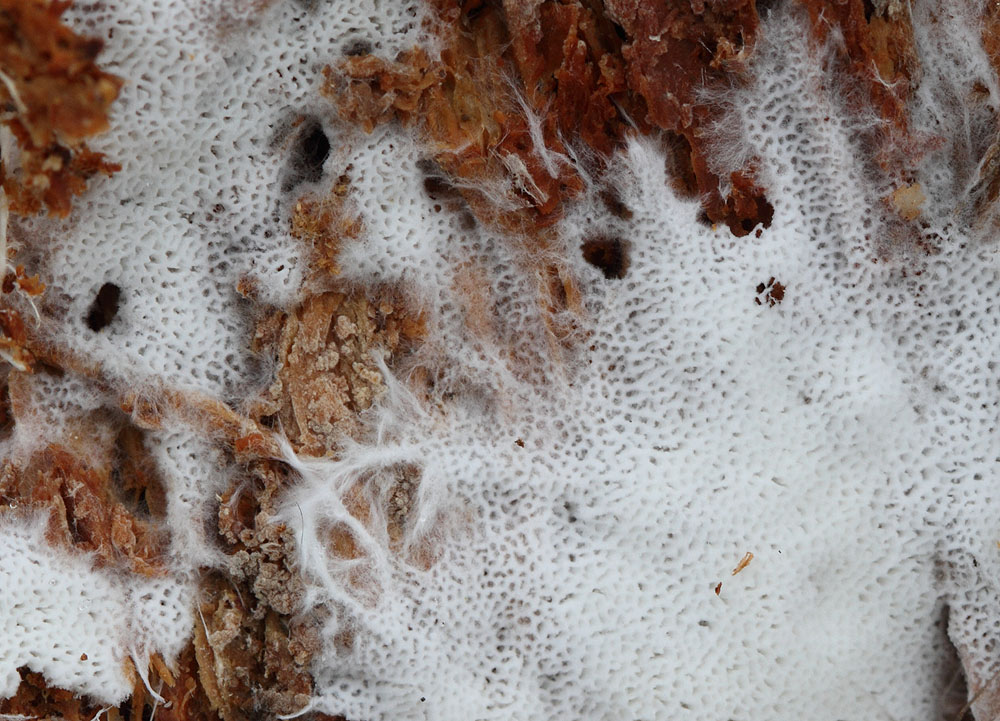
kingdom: Fungi
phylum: Basidiomycota
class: Agaricomycetes
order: Trechisporales
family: Sistotremataceae
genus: Trechispora
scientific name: Trechispora hymenocystis
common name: poret vathinde
